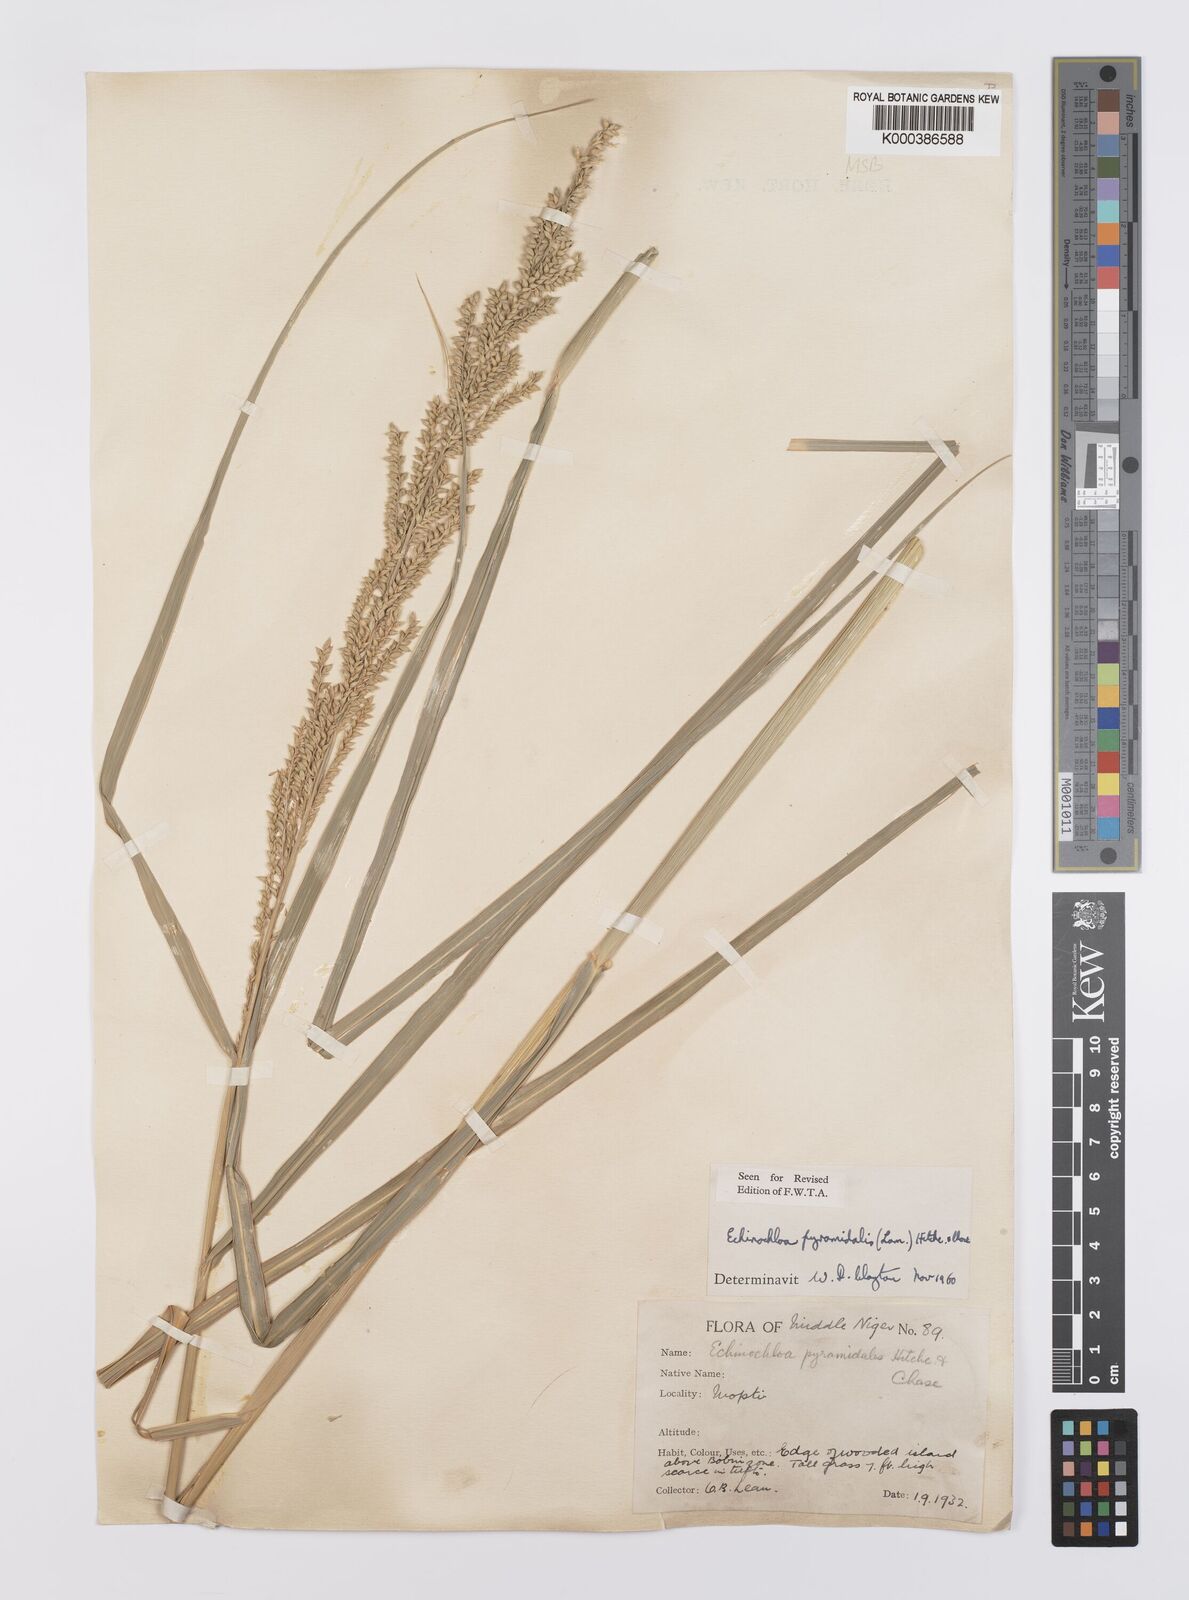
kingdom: Plantae
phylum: Tracheophyta
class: Liliopsida
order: Poales
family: Poaceae
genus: Echinochloa
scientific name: Echinochloa pyramidalis
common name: Antelope grass
